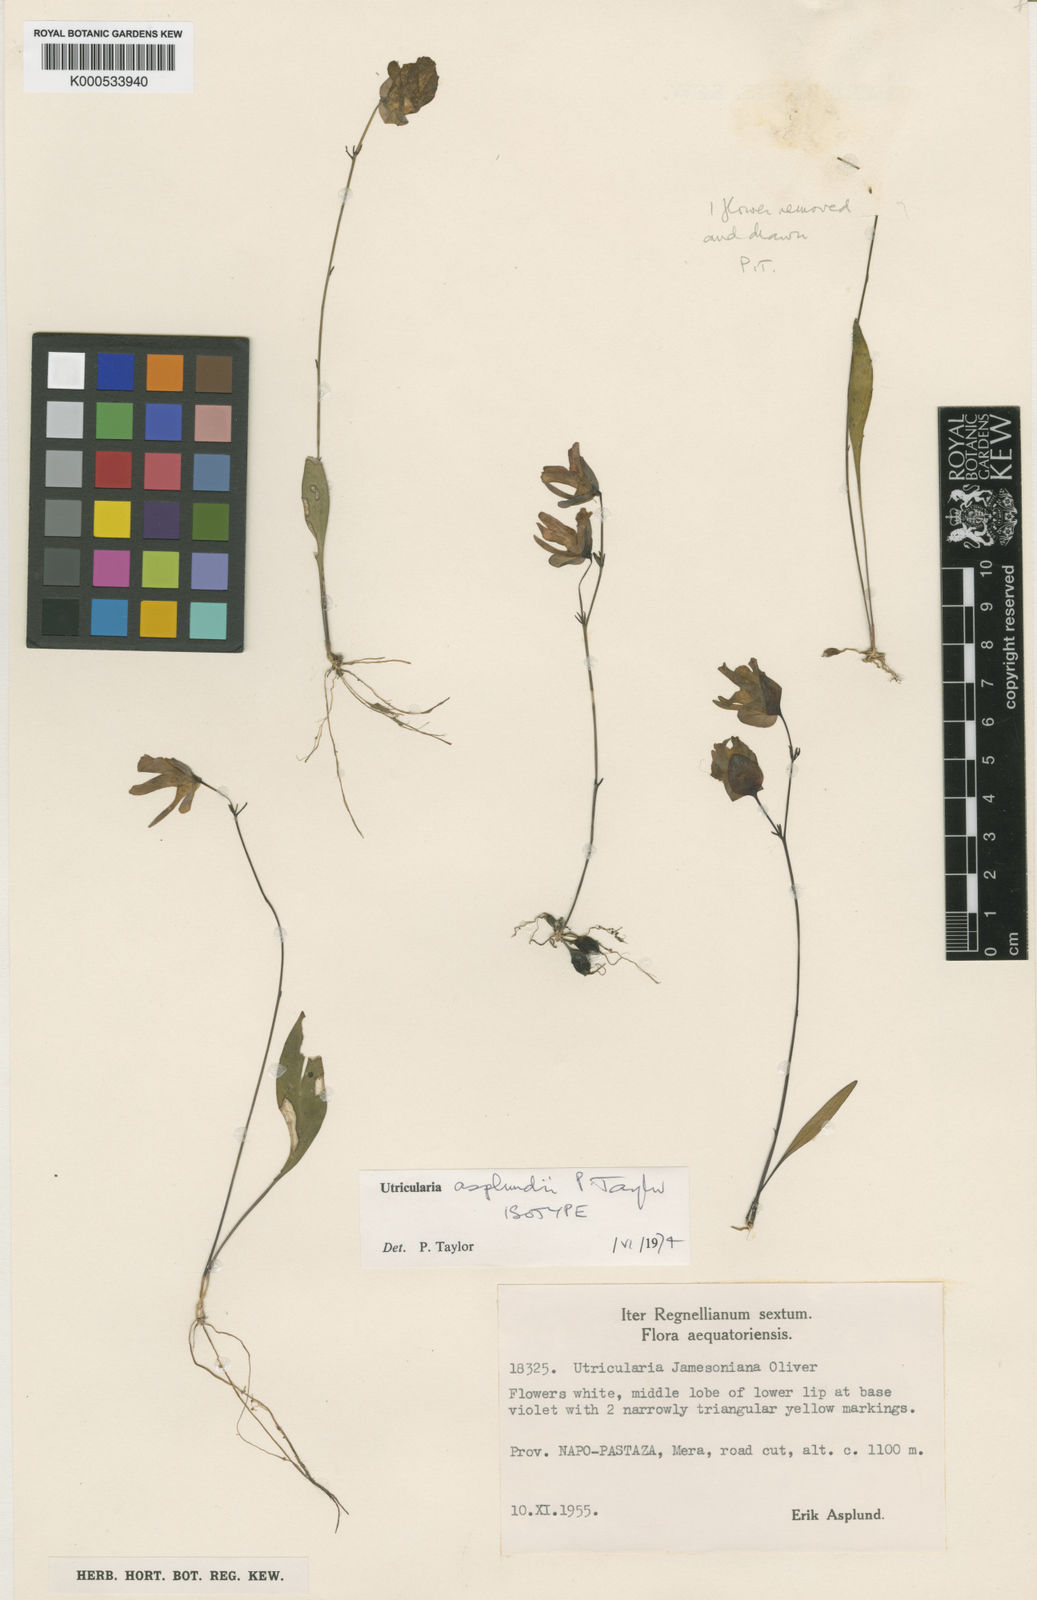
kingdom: Plantae
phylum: Tracheophyta
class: Magnoliopsida
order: Lamiales
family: Lentibulariaceae
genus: Utricularia
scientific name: Utricularia asplundii
